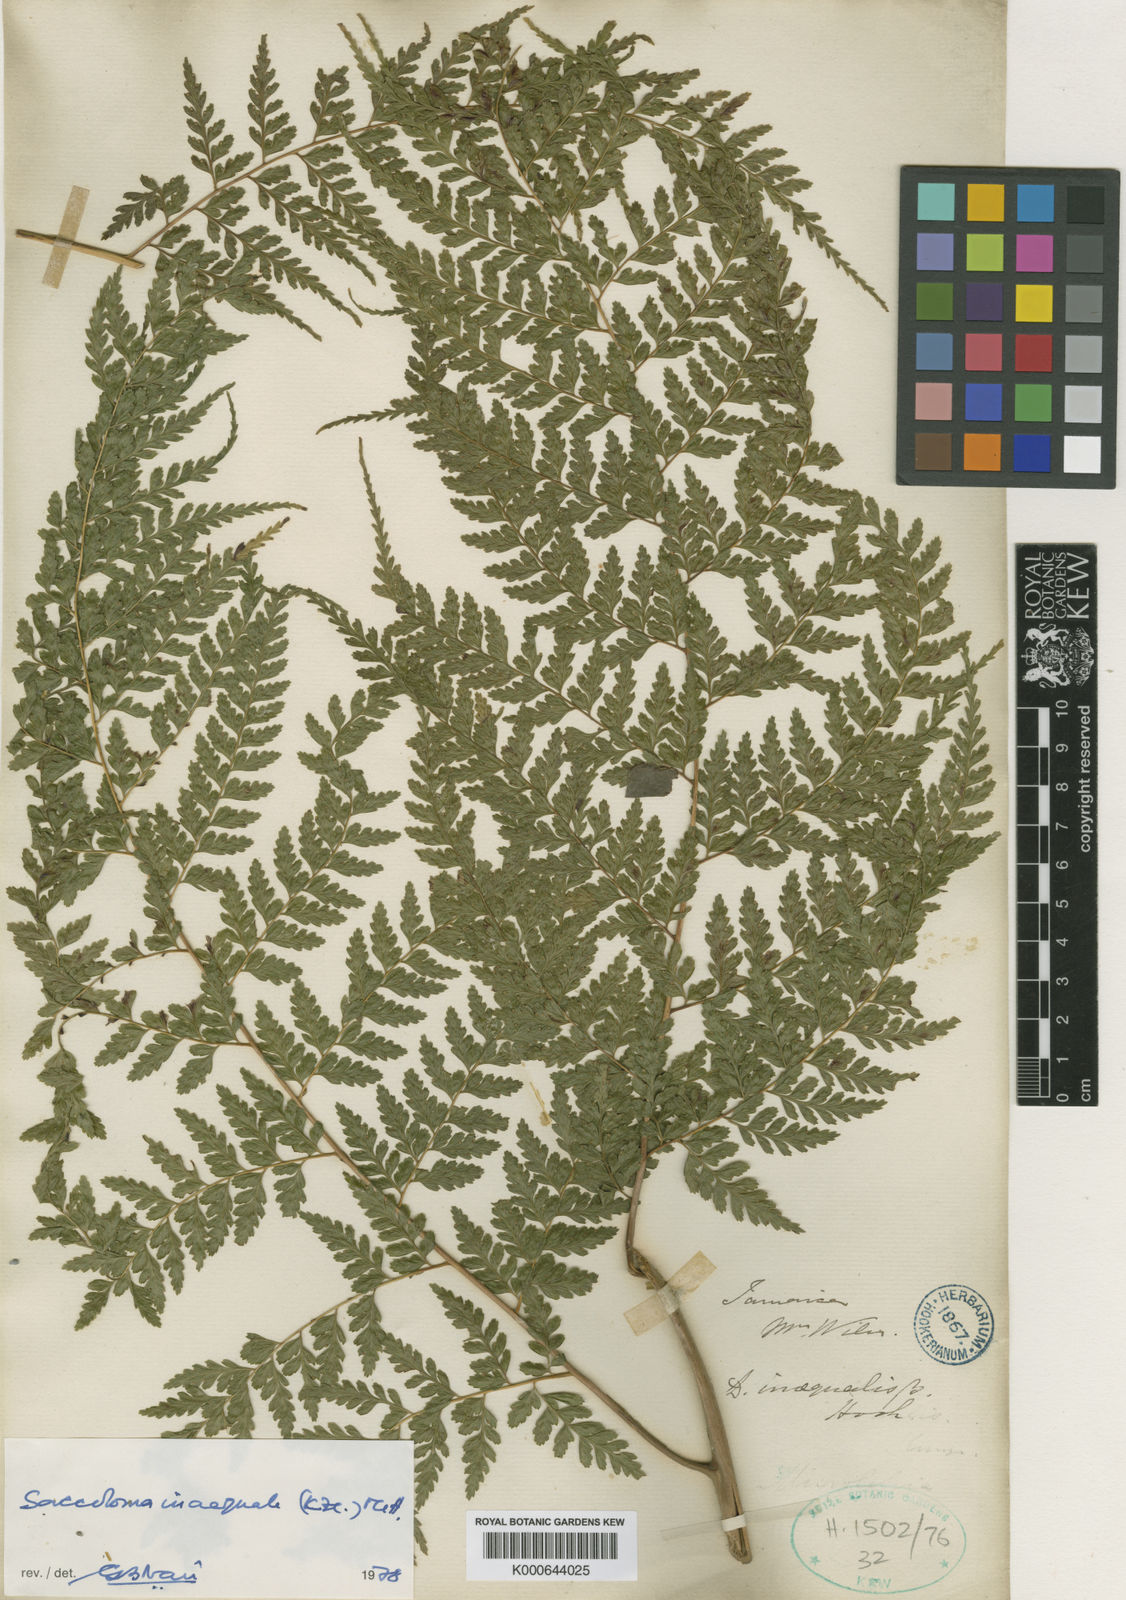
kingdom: Plantae
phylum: Tracheophyta
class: Polypodiopsida
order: Polypodiales
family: Saccolomataceae
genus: Saccoloma
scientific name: Saccoloma inaequale
